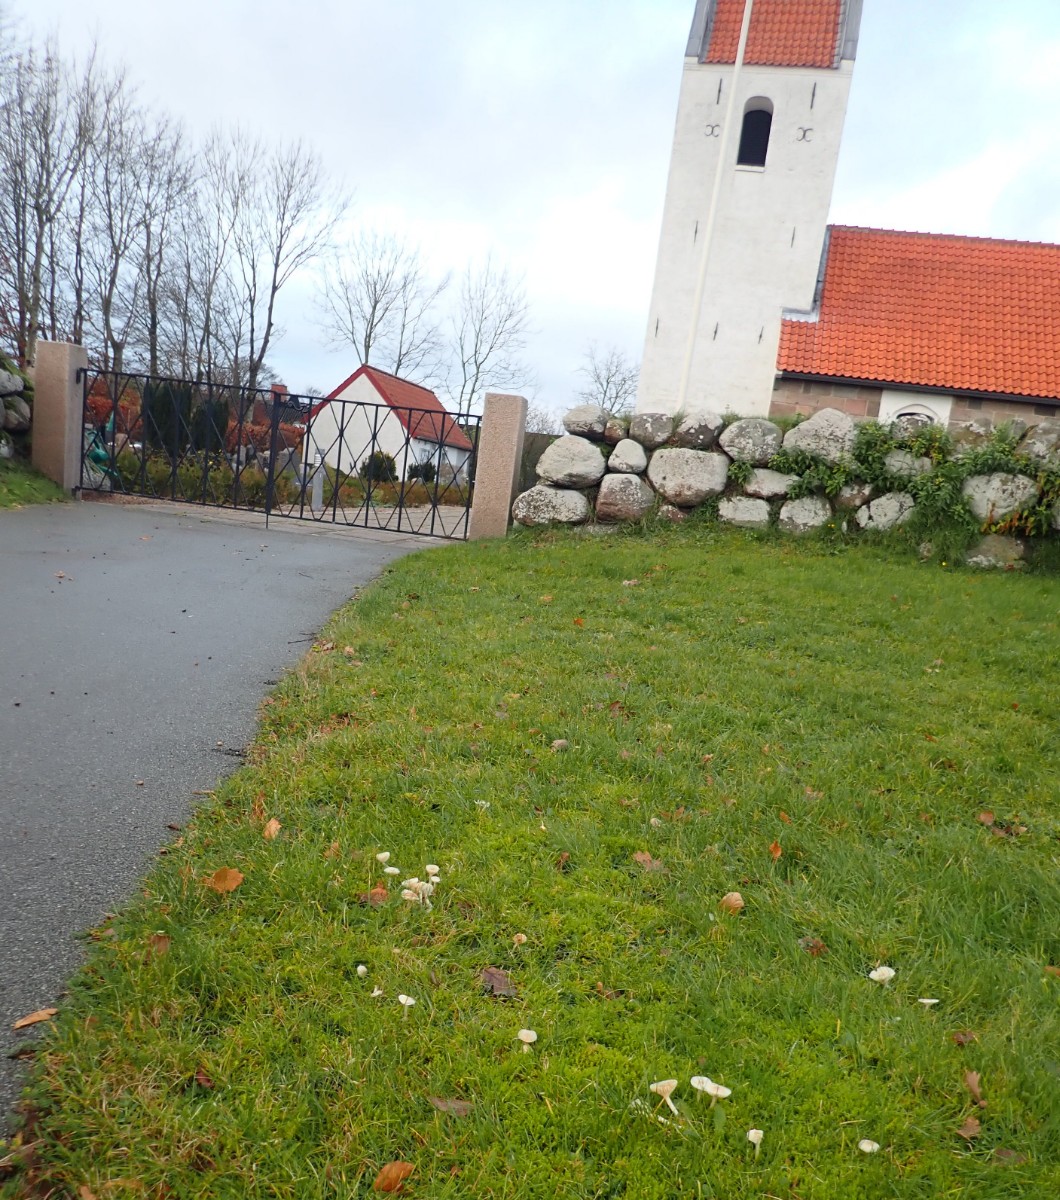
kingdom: Fungi
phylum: Basidiomycota
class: Agaricomycetes
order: Agaricales
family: Hygrophoraceae
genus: Cuphophyllus
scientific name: Cuphophyllus virgineus
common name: snehvid vokshat
